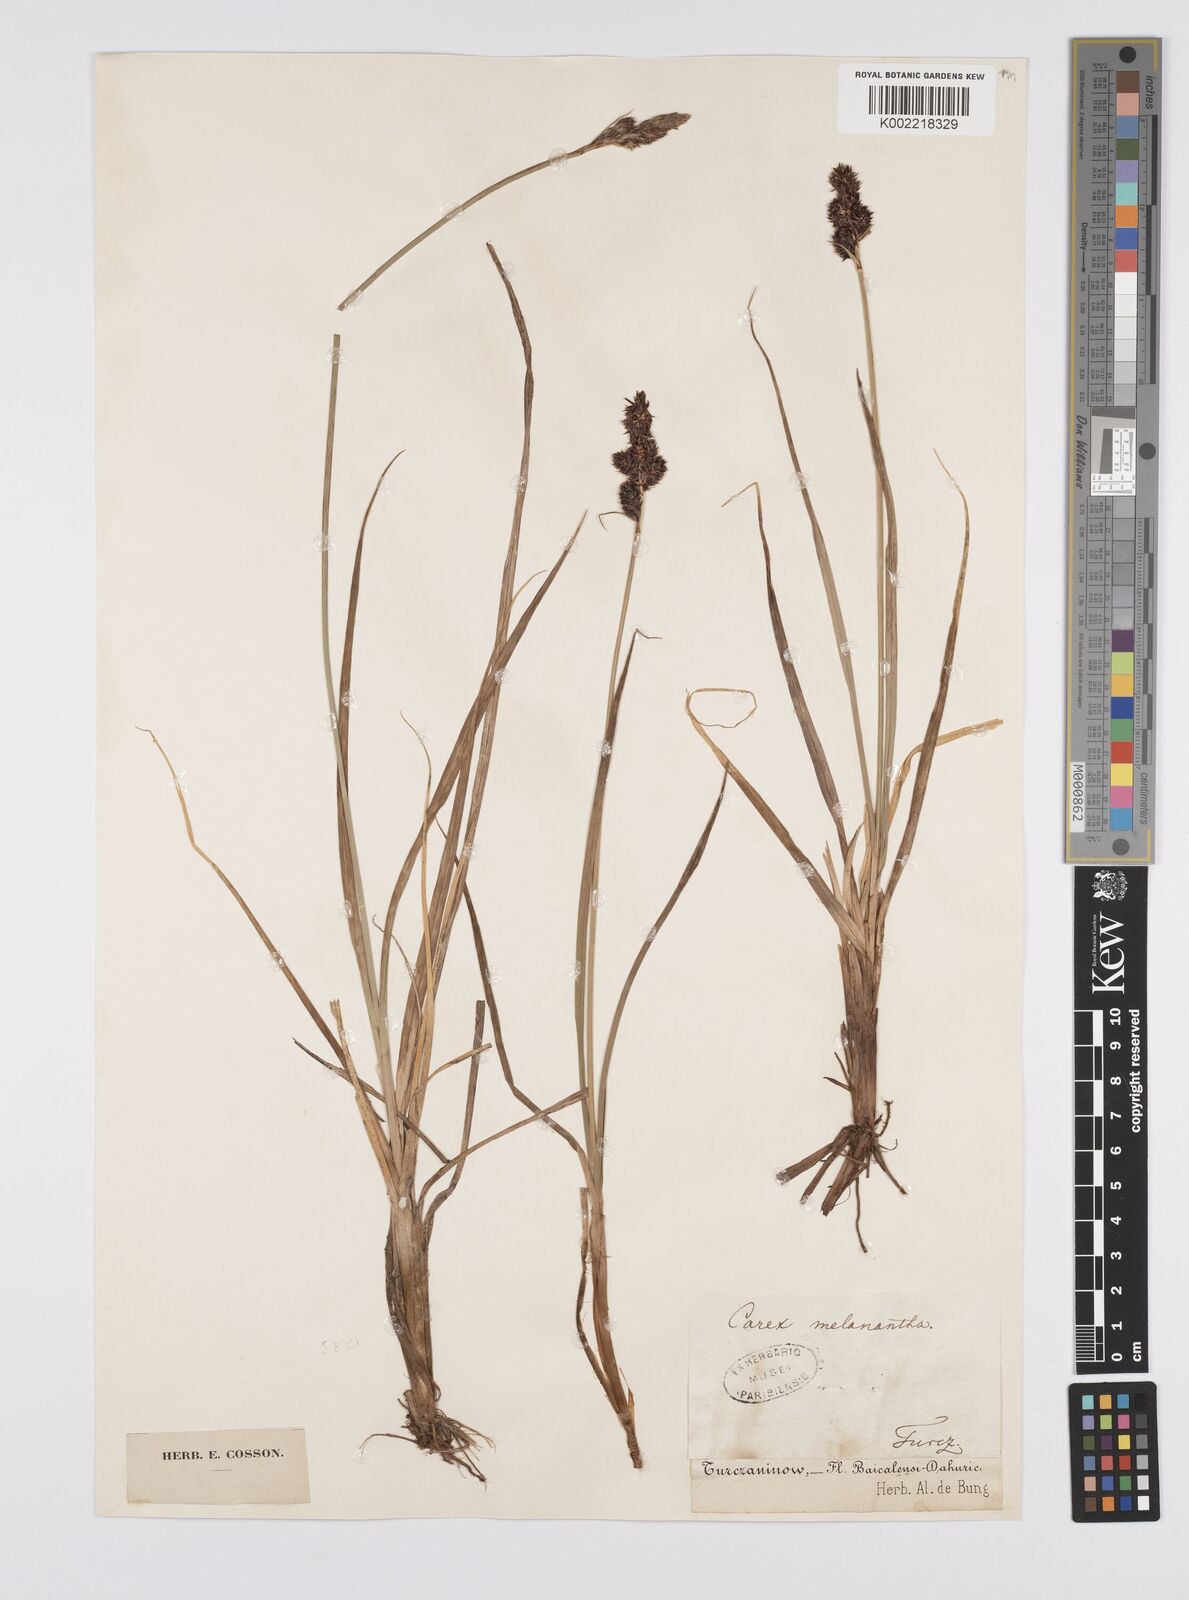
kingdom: Plantae
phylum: Tracheophyta
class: Liliopsida
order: Poales
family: Cyperaceae
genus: Carex
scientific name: Carex melanantha
